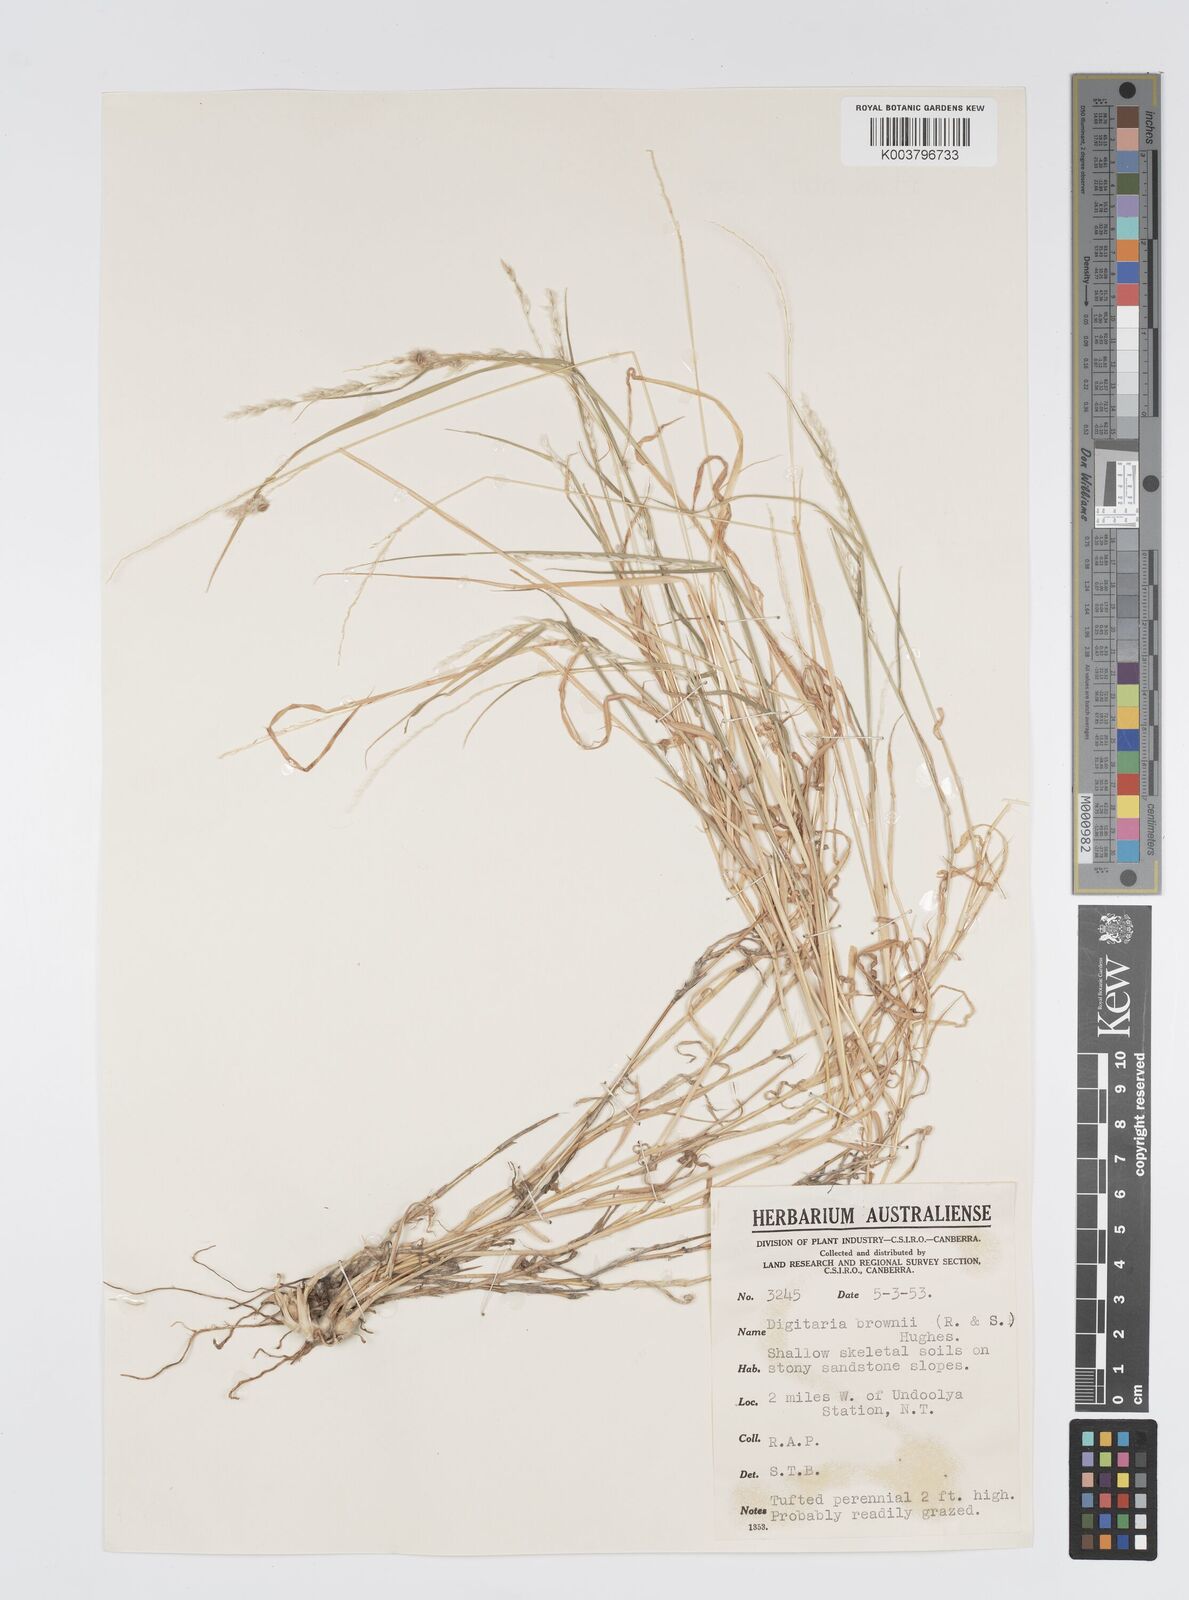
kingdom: Plantae
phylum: Tracheophyta
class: Liliopsida
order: Poales
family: Poaceae
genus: Digitaria
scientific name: Digitaria brownii
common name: Cotton grass
